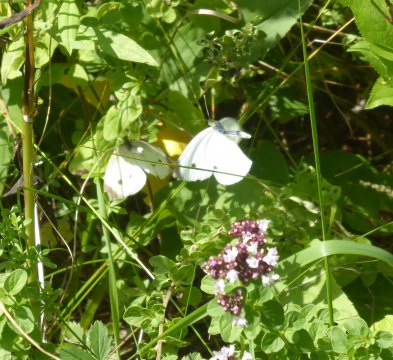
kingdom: Animalia
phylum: Arthropoda
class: Insecta
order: Lepidoptera
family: Pieridae
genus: Pieris
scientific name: Pieris rapae
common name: Cabbage White
